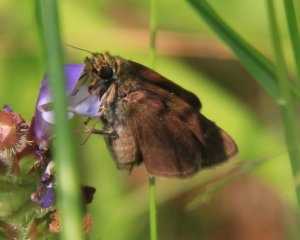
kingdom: Animalia
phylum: Arthropoda
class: Insecta
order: Lepidoptera
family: Hesperiidae
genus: Euphyes
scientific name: Euphyes vestris
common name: Dun Skipper
